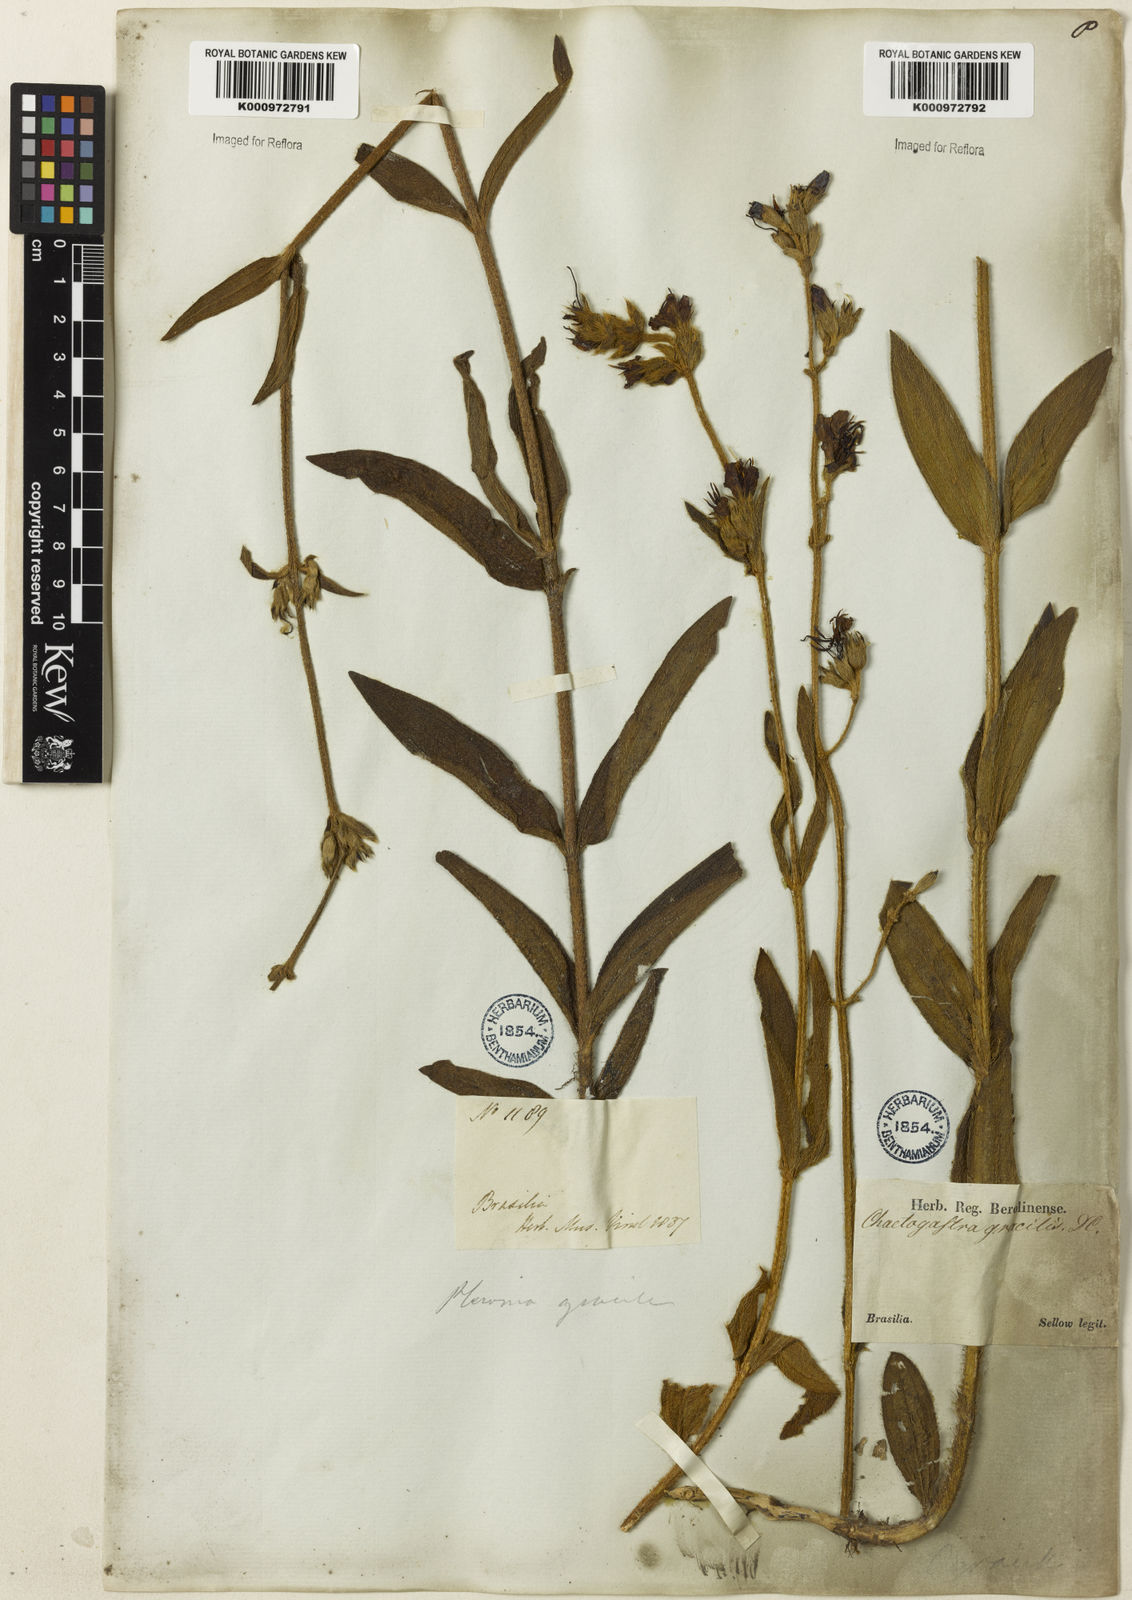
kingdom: Plantae
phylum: Tracheophyta
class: Magnoliopsida
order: Myrtales
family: Melastomataceae
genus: Chaetogastra
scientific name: Chaetogastra gracilis
